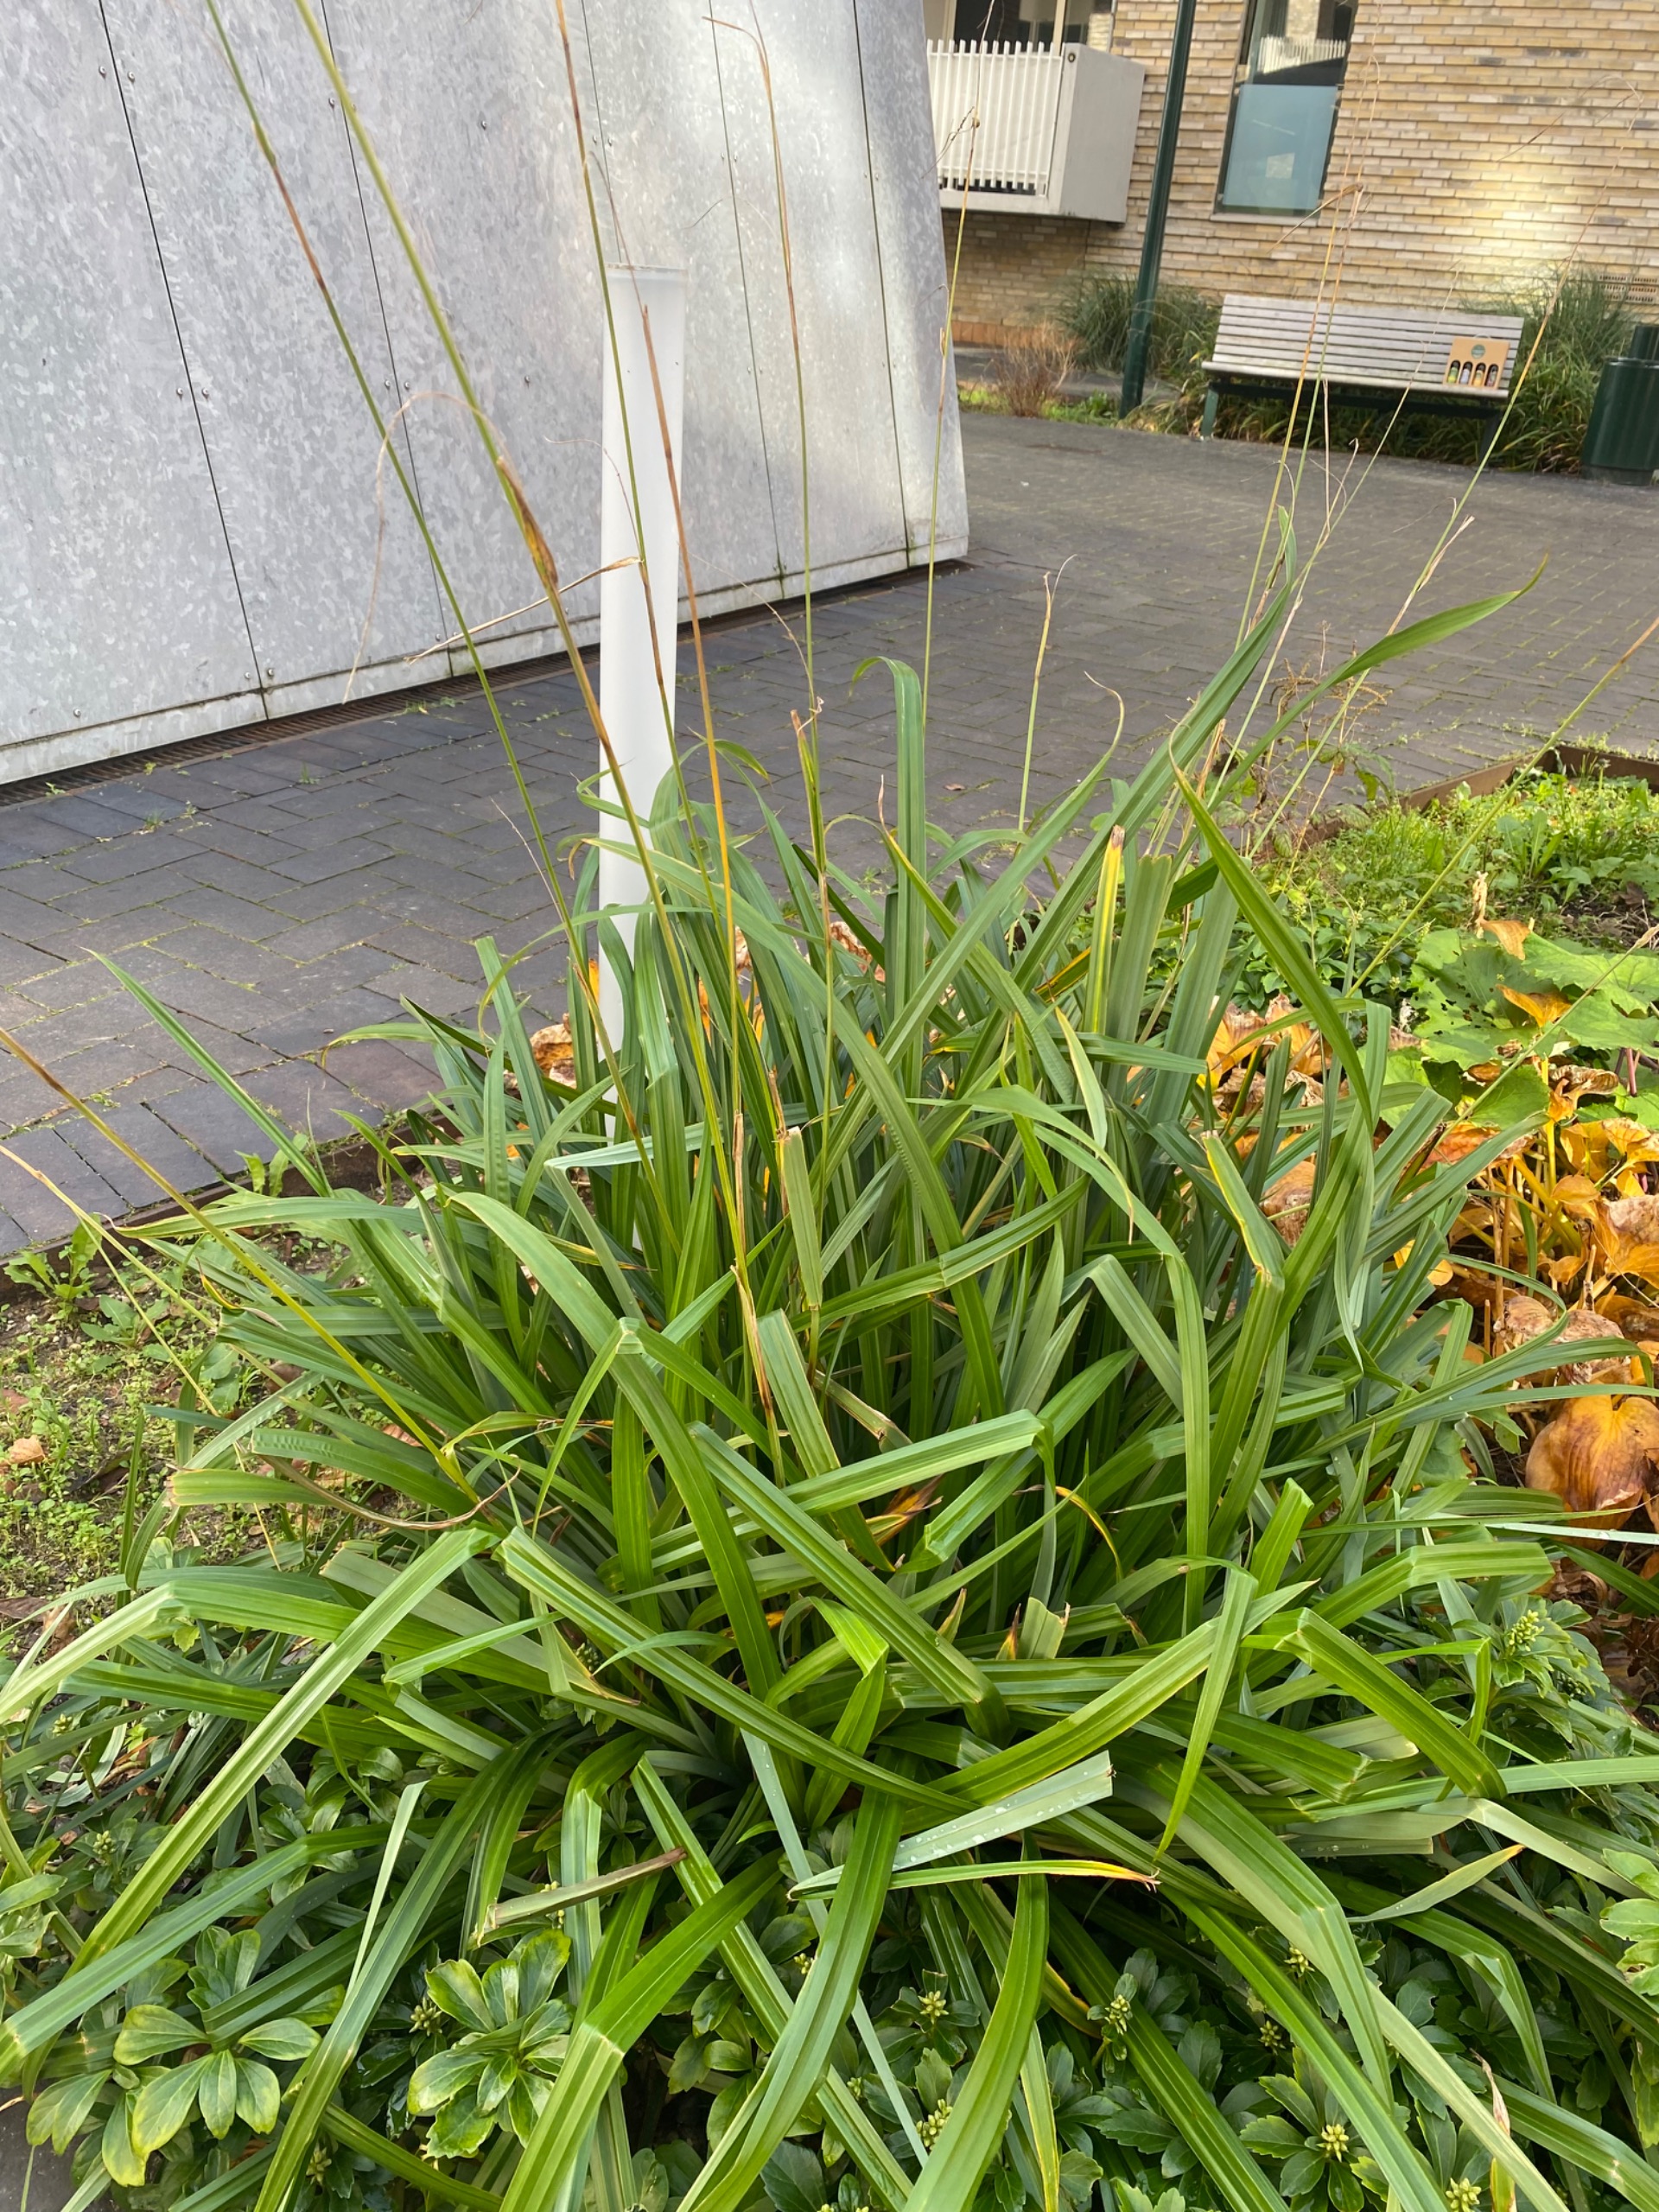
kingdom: Plantae
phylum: Tracheophyta
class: Liliopsida
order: Poales
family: Cyperaceae
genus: Carex
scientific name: Carex pendula
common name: Kæmpe-star
